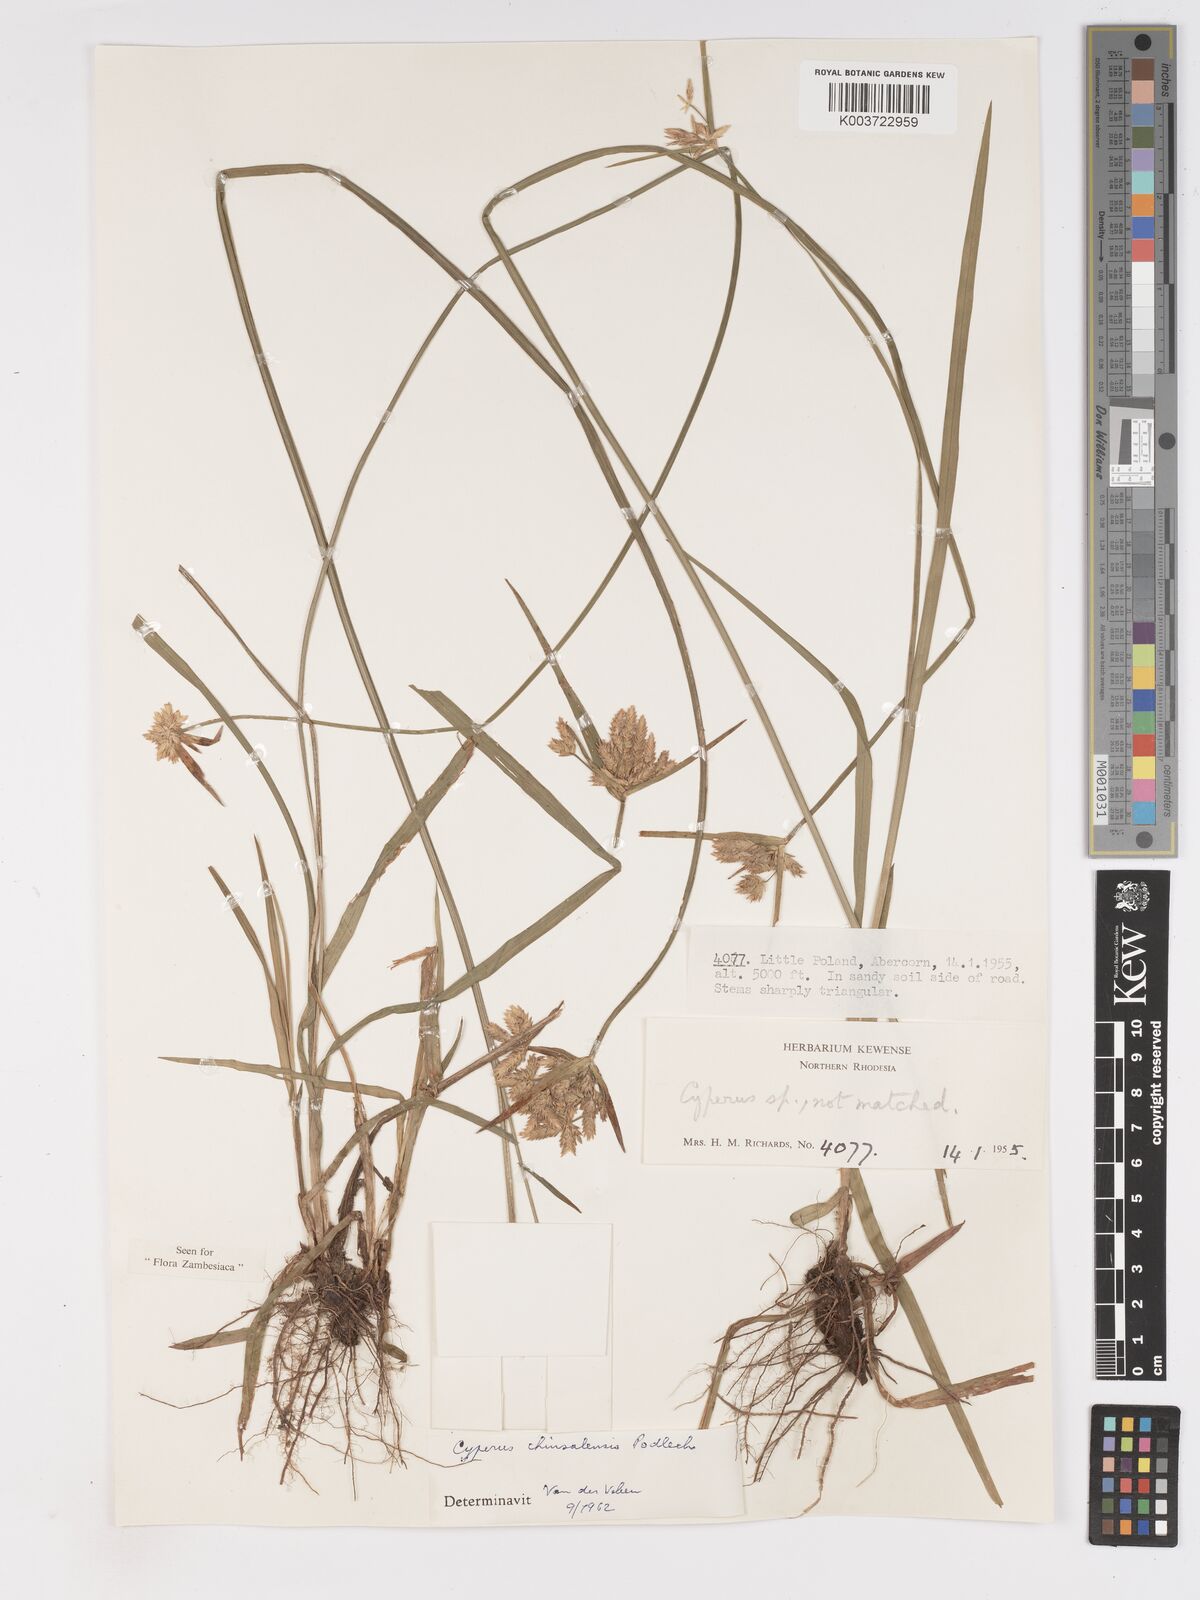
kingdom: Plantae
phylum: Tracheophyta
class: Liliopsida
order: Poales
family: Cyperaceae
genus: Cyperus
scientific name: Cyperus chinsalensis
